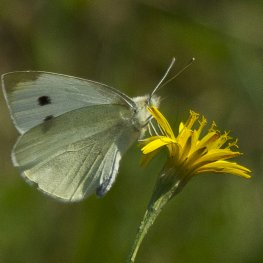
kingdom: Animalia
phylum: Arthropoda
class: Insecta
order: Lepidoptera
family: Pieridae
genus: Pieris
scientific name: Pieris rapae
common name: Cabbage White
